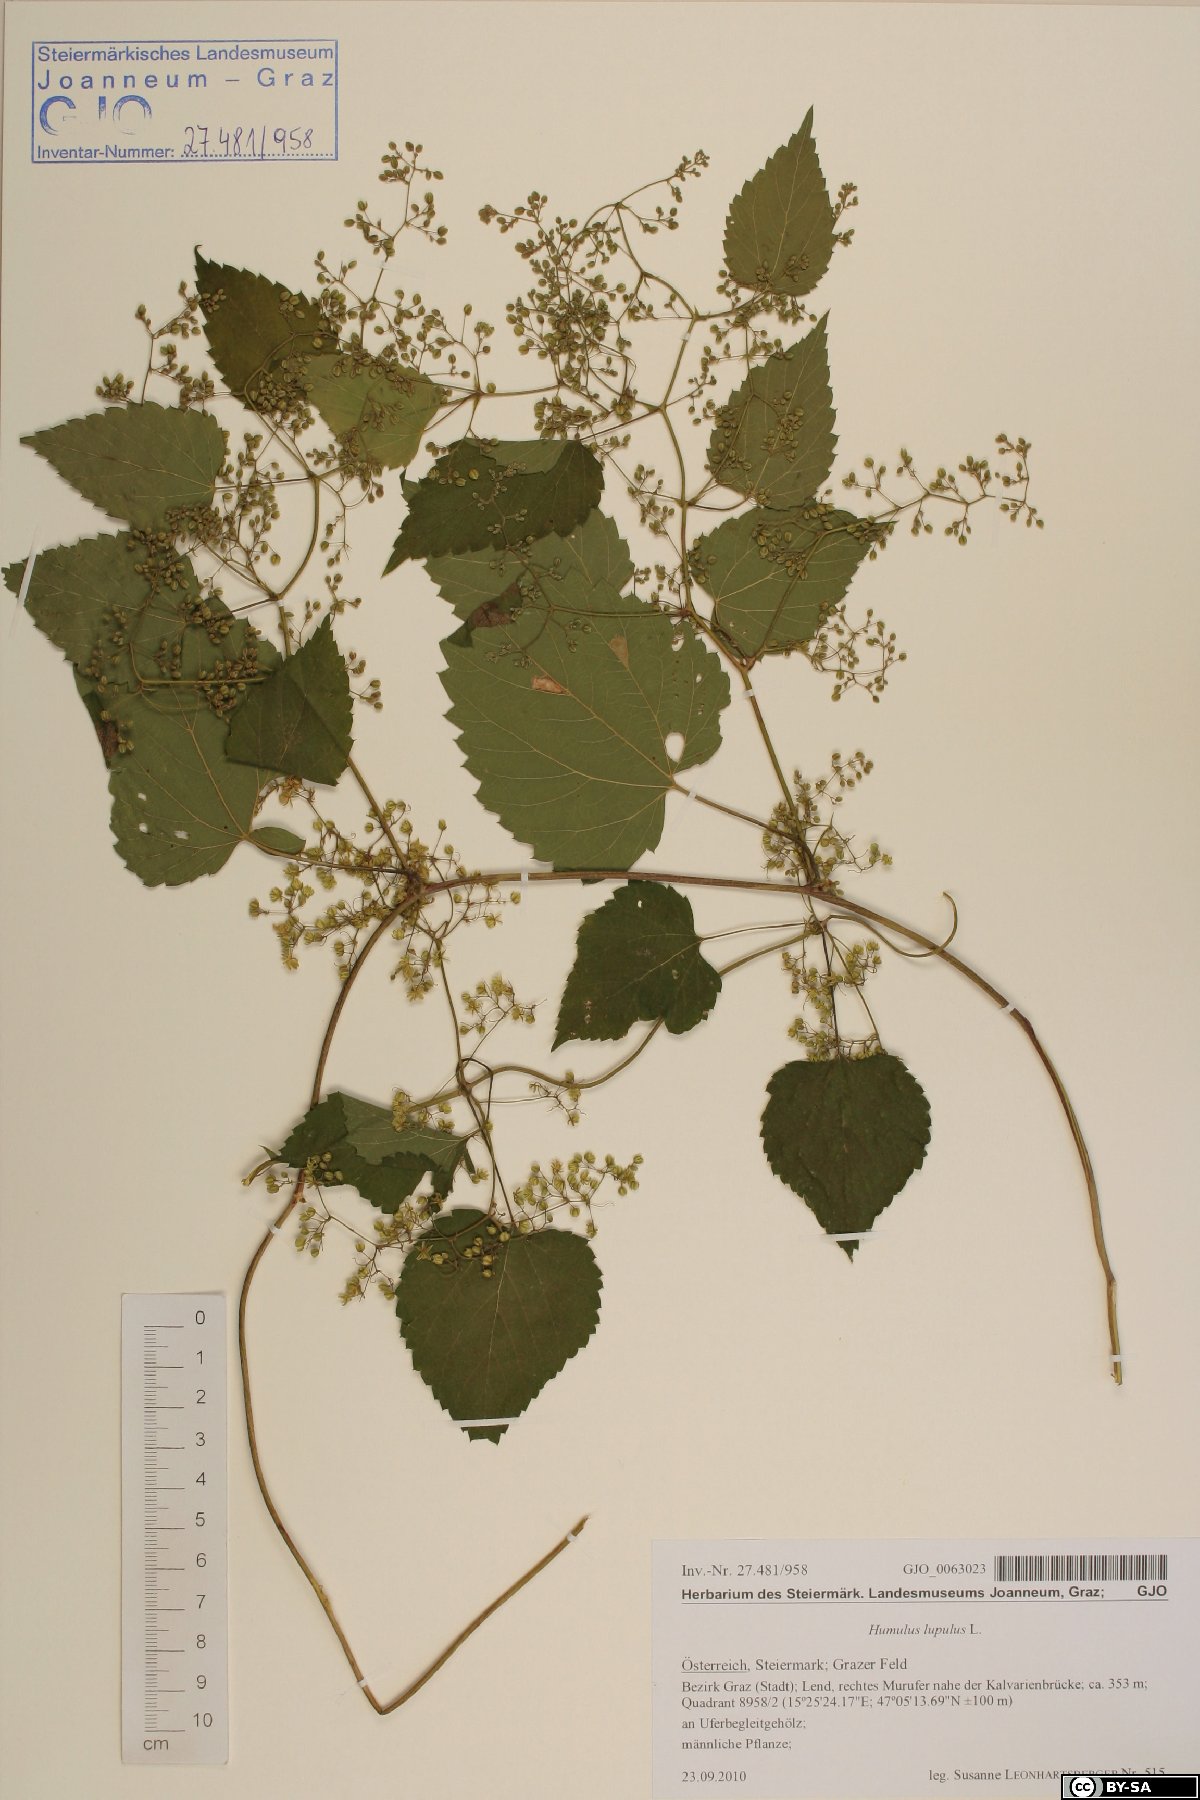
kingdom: Plantae
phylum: Tracheophyta
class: Magnoliopsida
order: Rosales
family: Cannabaceae
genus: Humulus
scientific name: Humulus lupulus
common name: Hop
